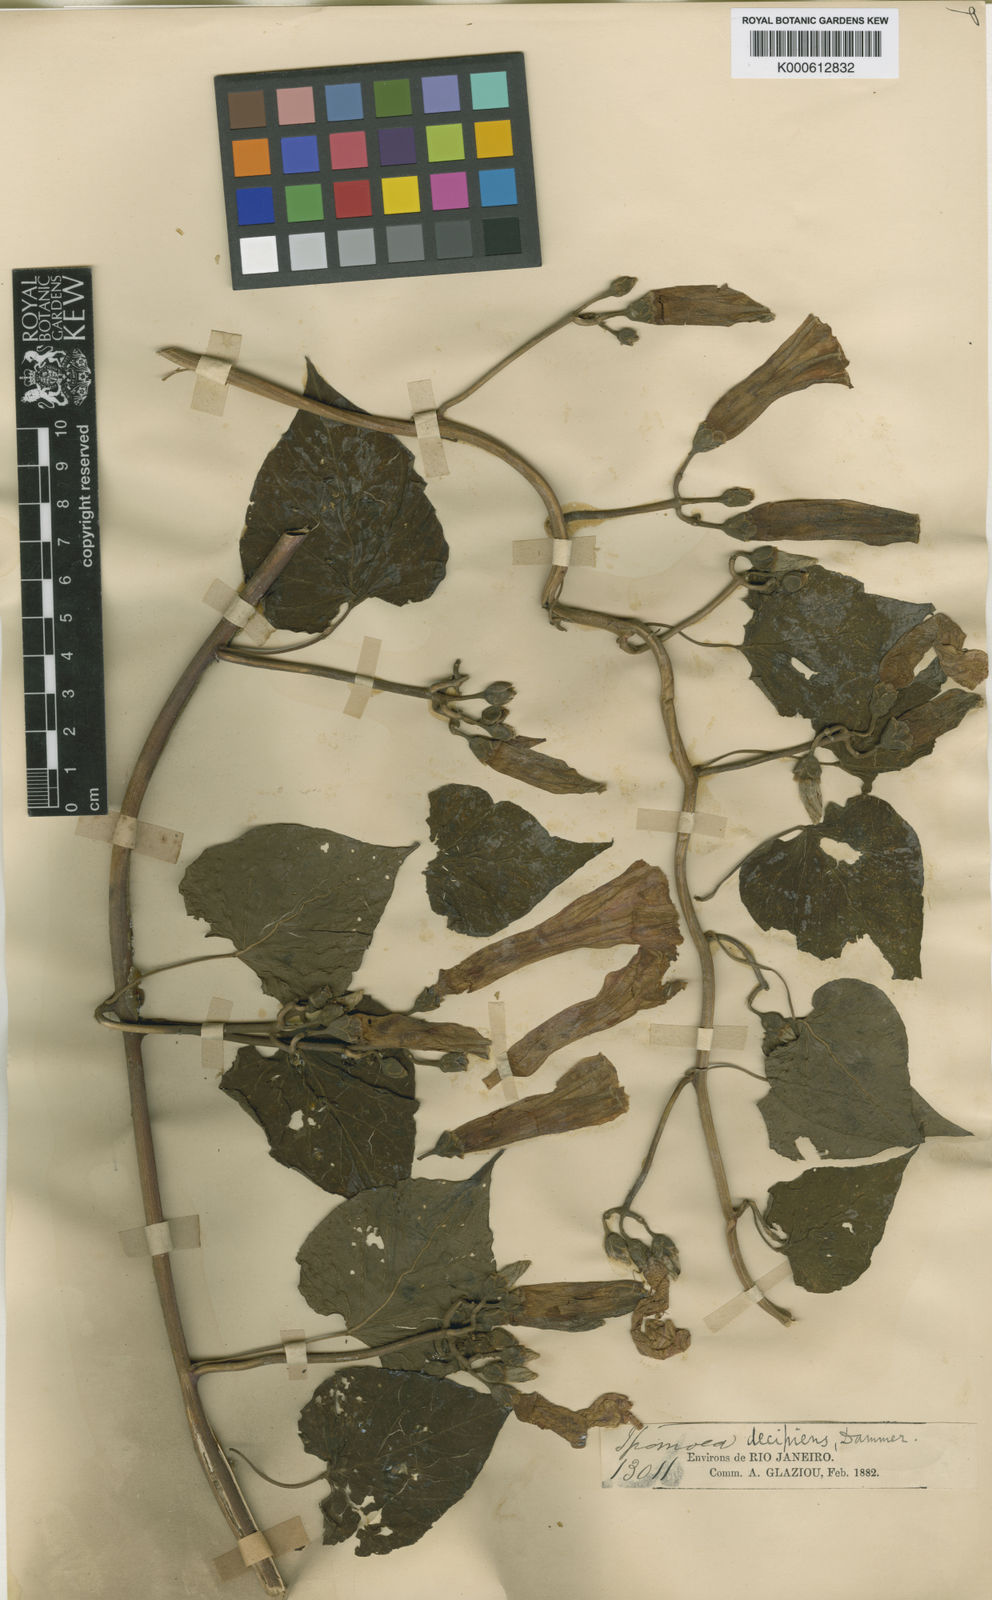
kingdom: Plantae
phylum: Tracheophyta
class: Magnoliopsida
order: Solanales
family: Convolvulaceae
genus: Ipomoea
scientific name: Ipomoea decipiens
